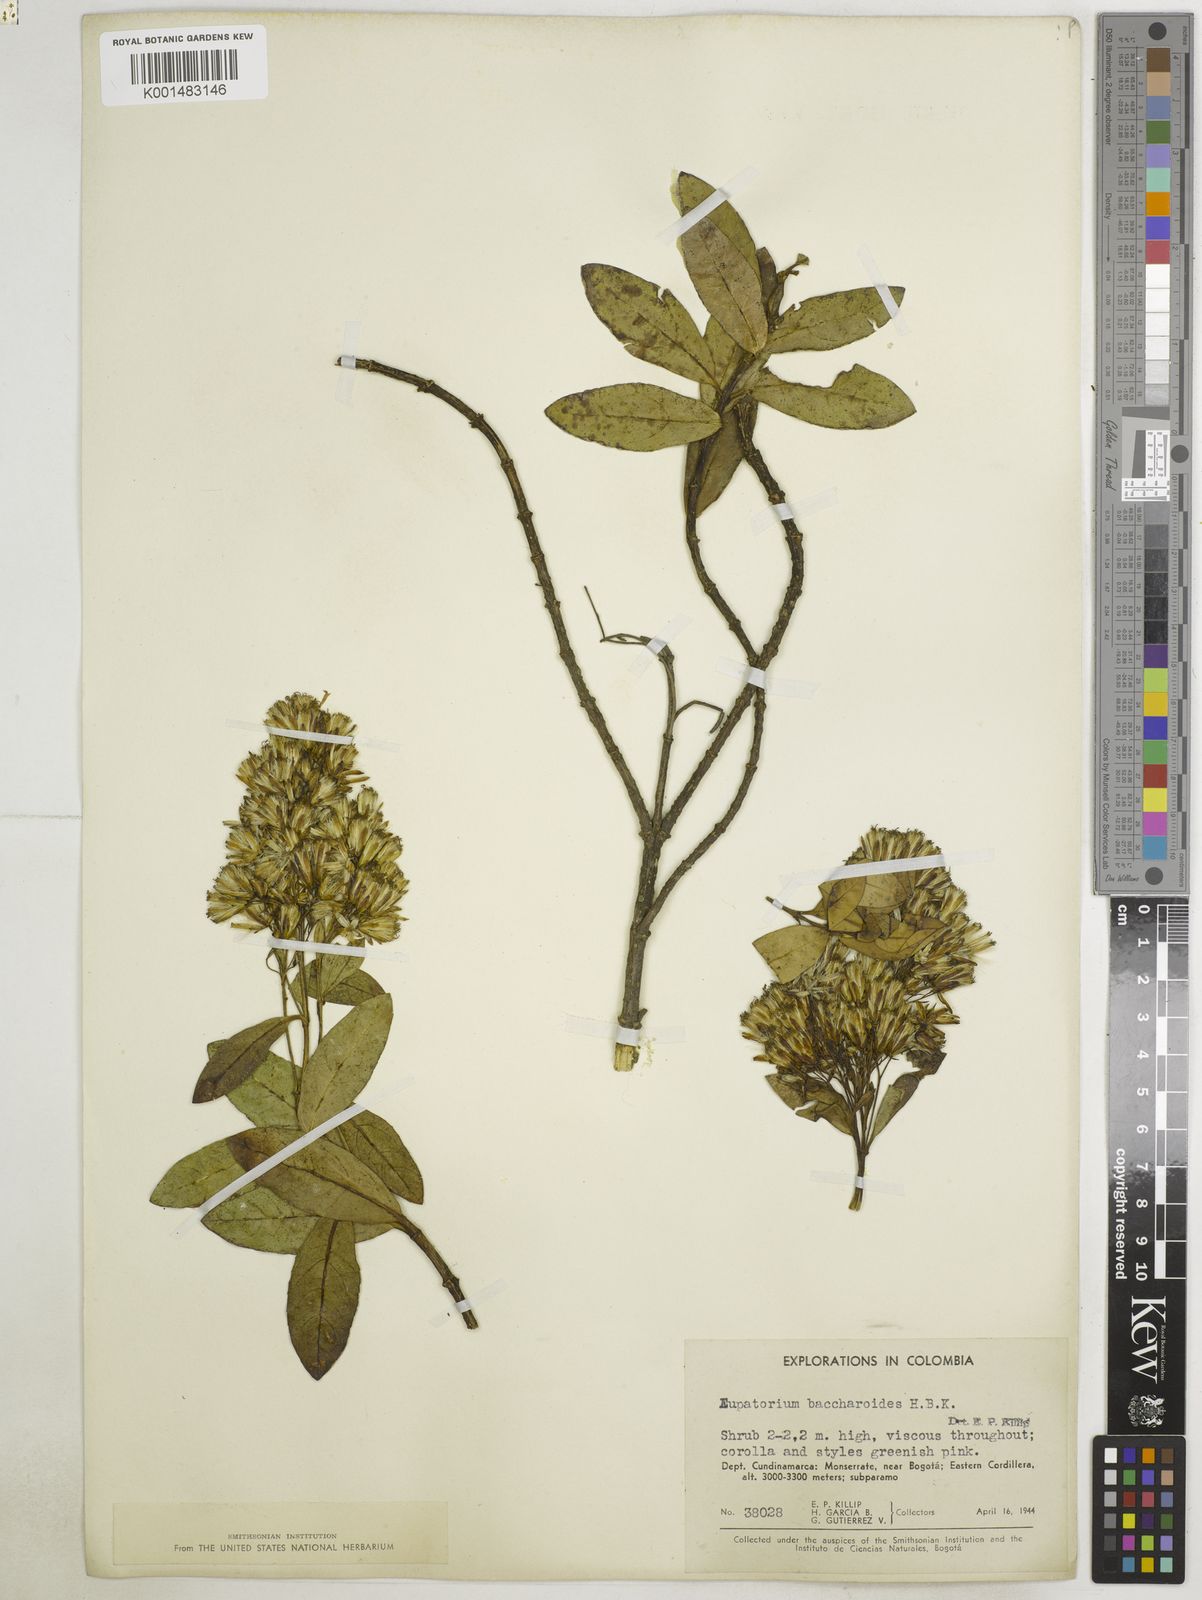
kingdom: Plantae
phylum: Tracheophyta
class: Magnoliopsida
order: Asterales
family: Asteraceae
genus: Ageratina
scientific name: Ageratina baccharoides
